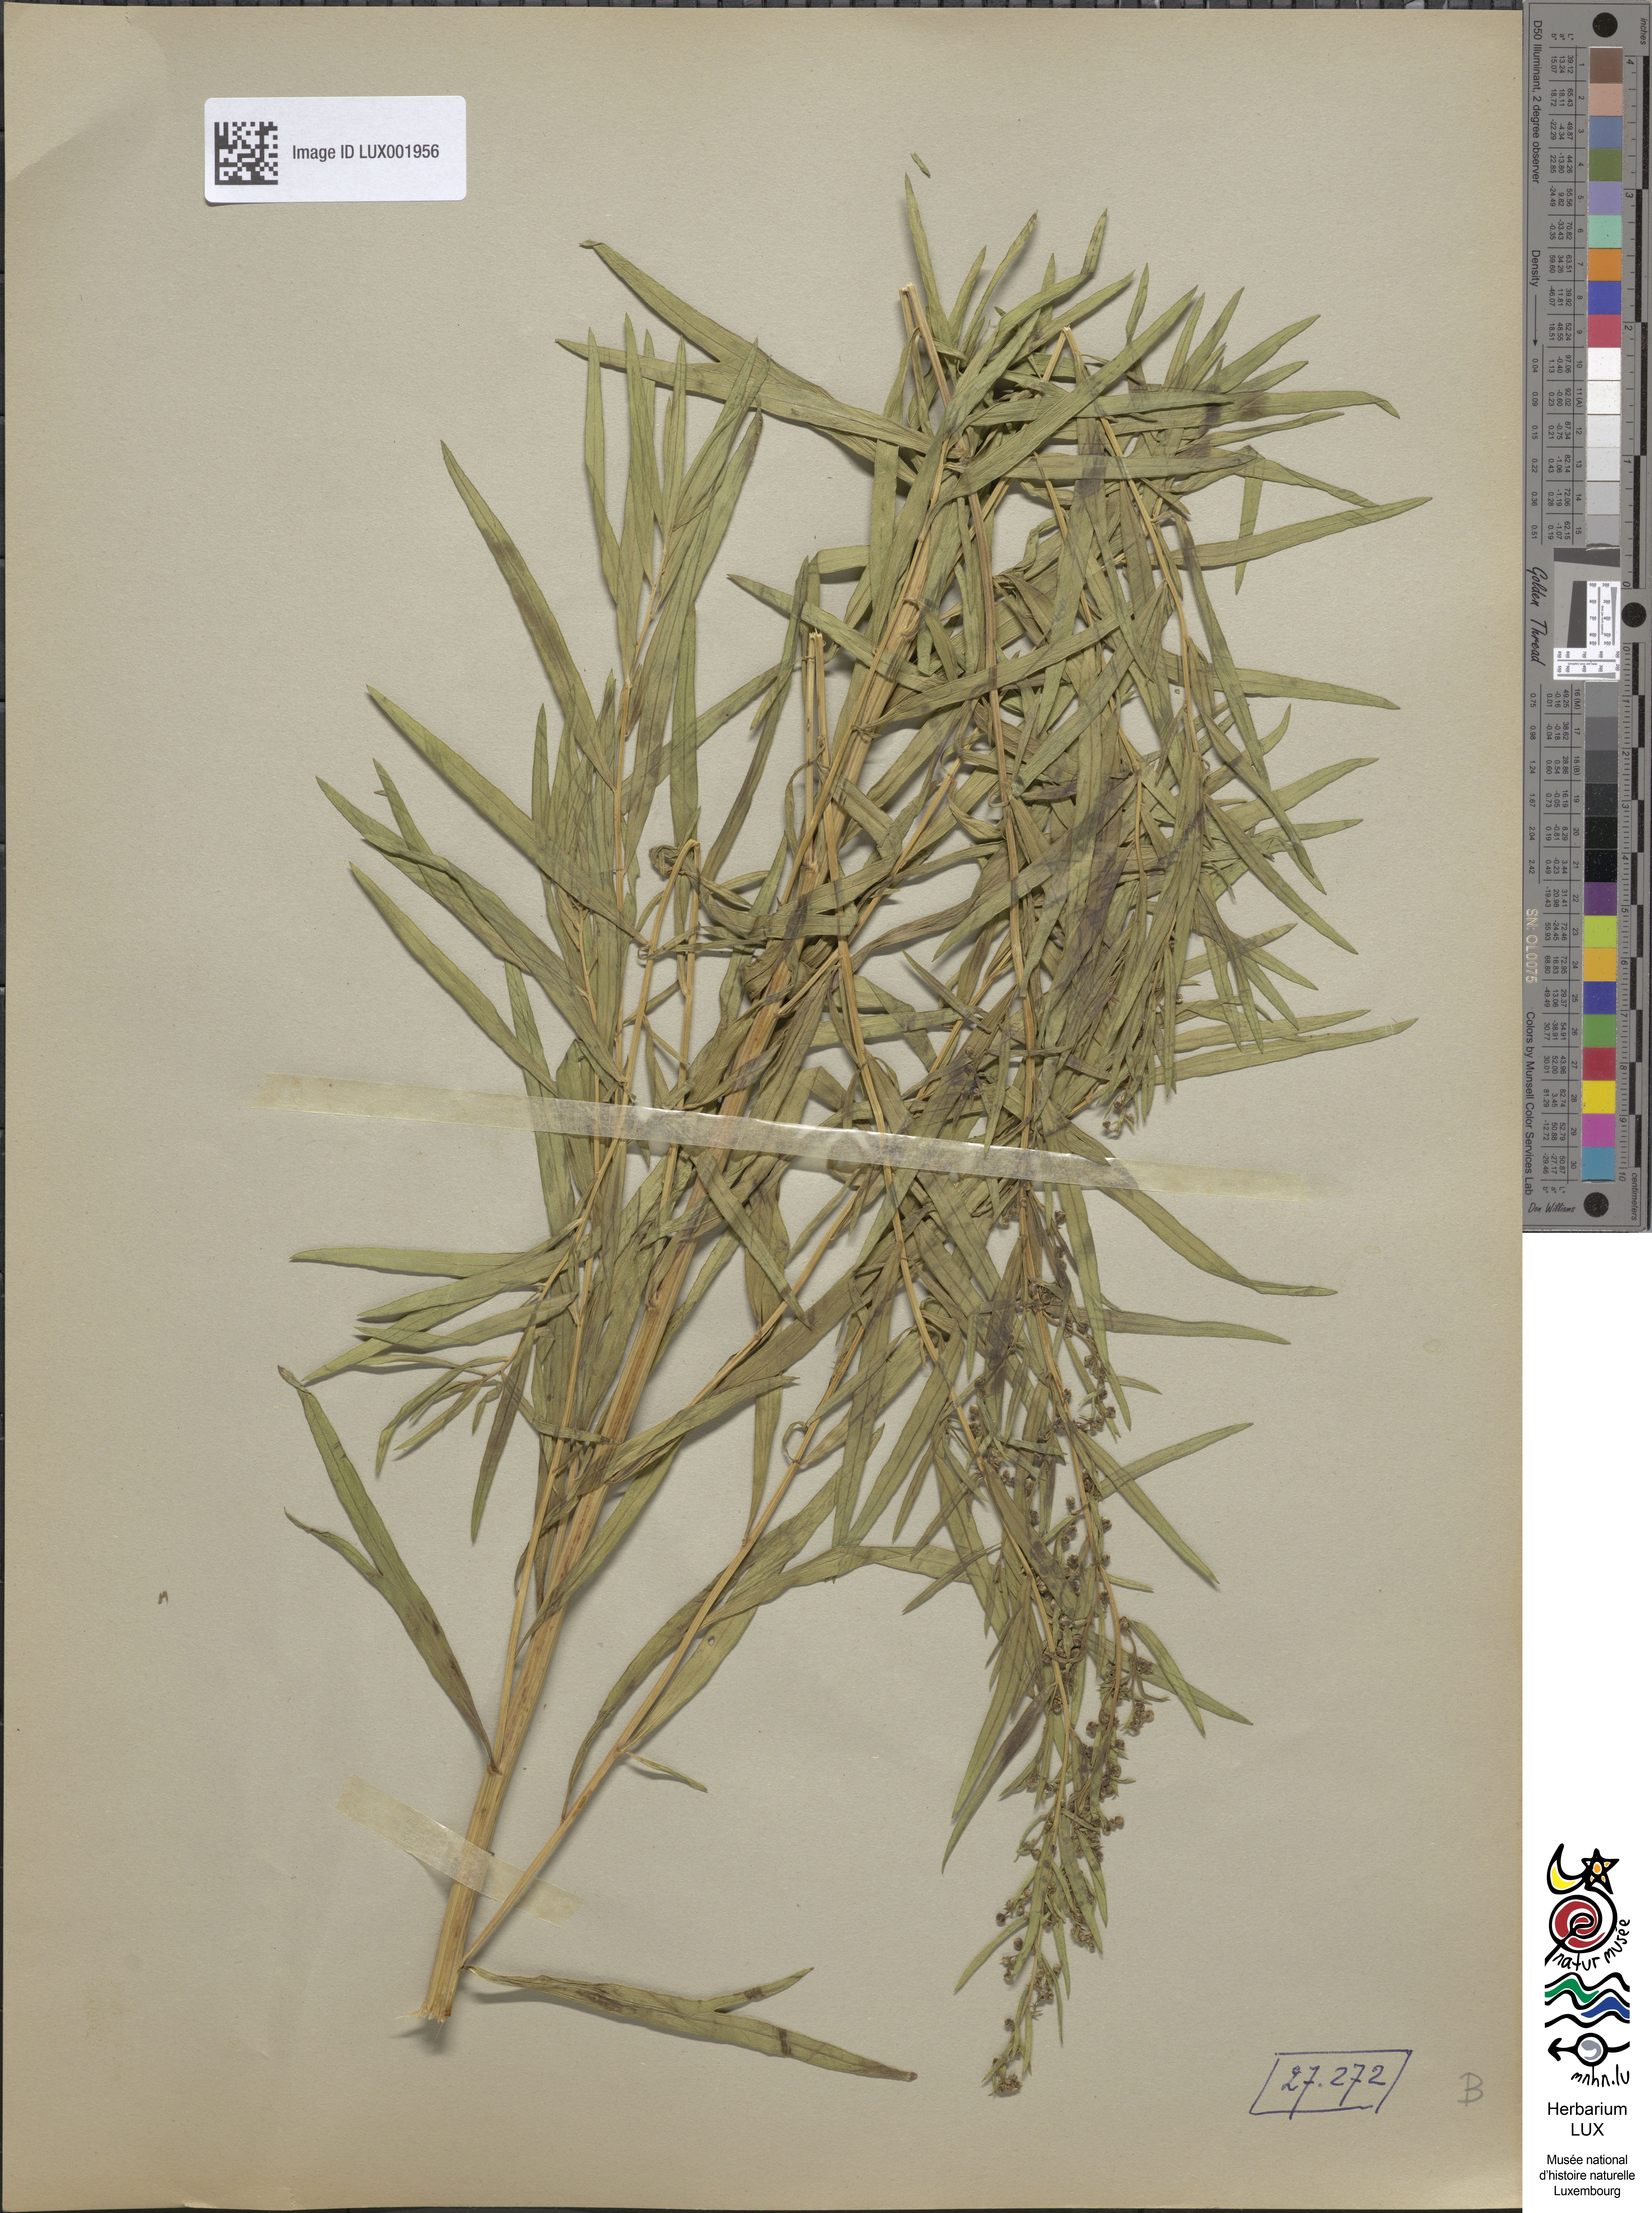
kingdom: Plantae
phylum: Tracheophyta
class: Magnoliopsida
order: Asterales
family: Asteraceae
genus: Artemisia
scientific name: Artemisia dracunculus
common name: Tarragon
